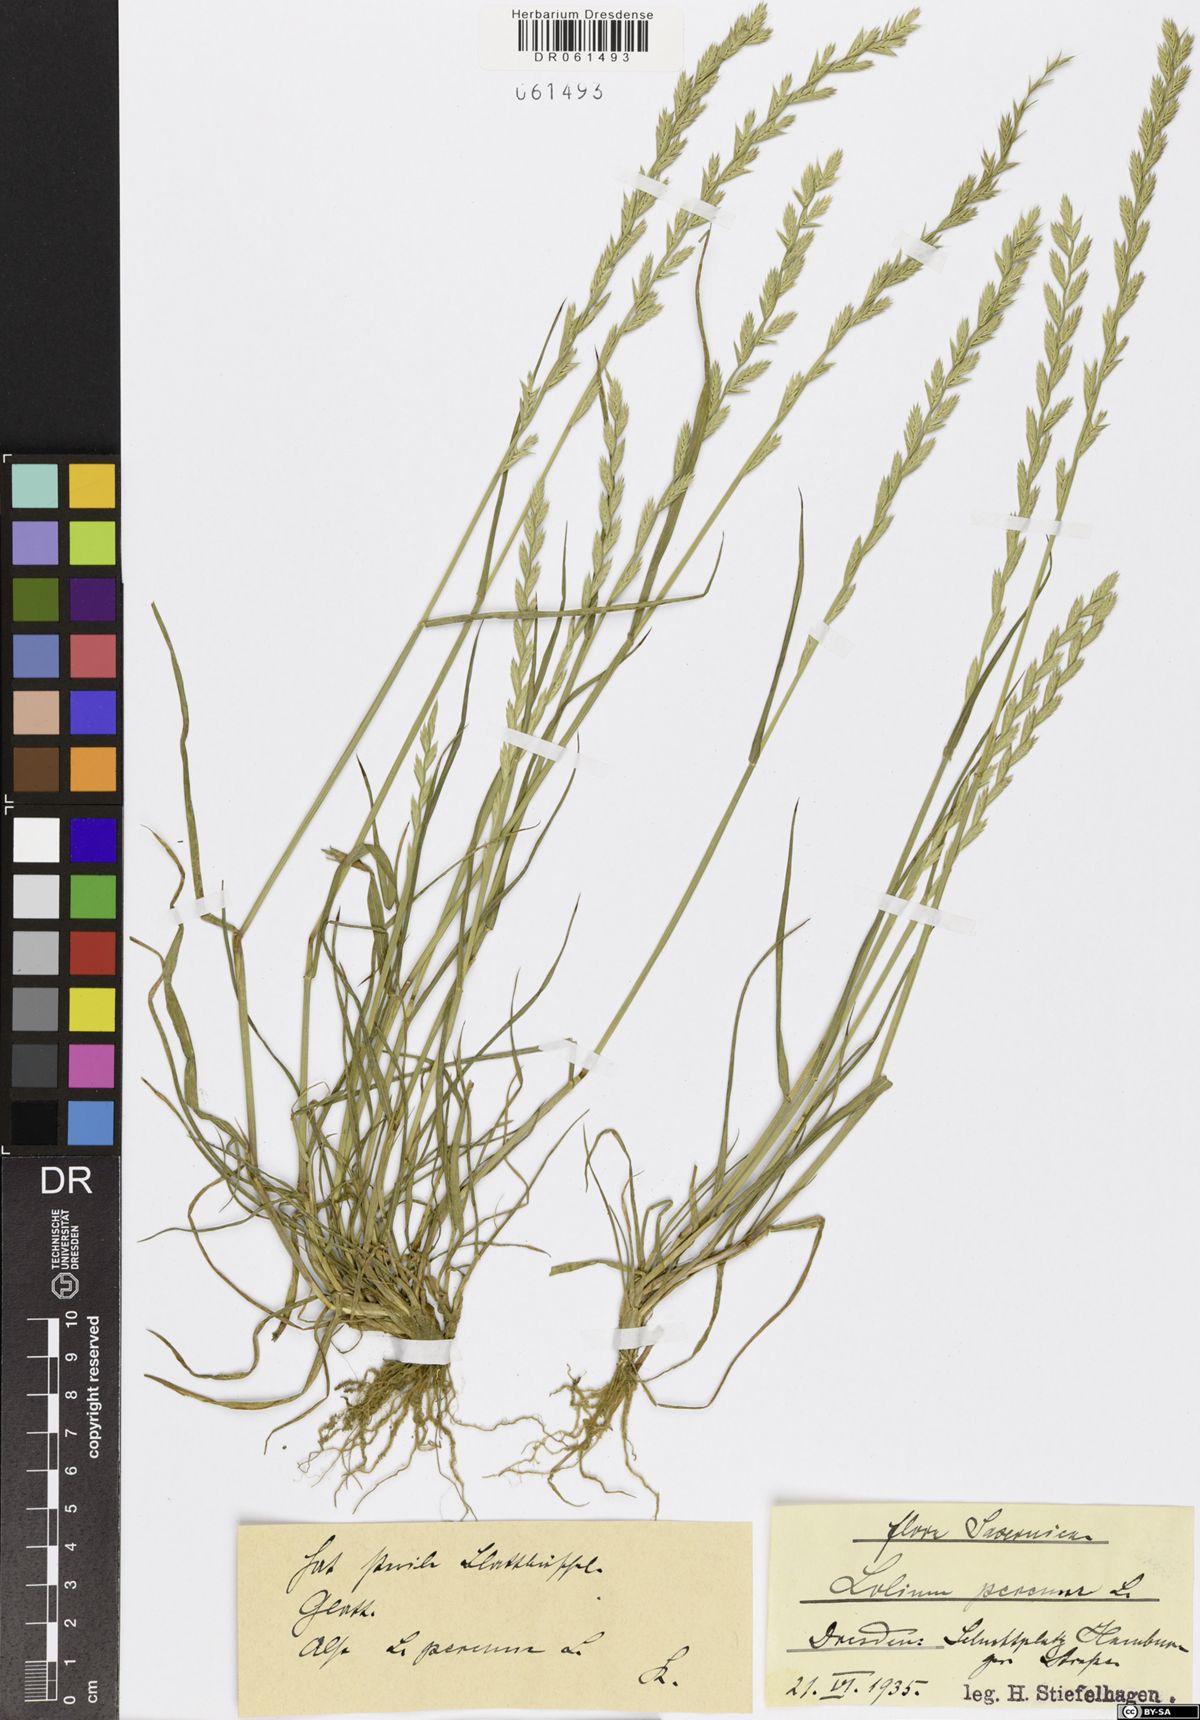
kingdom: Plantae
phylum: Tracheophyta
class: Liliopsida
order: Poales
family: Poaceae
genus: Lolium
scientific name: Lolium perenne
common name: Perennial ryegrass
